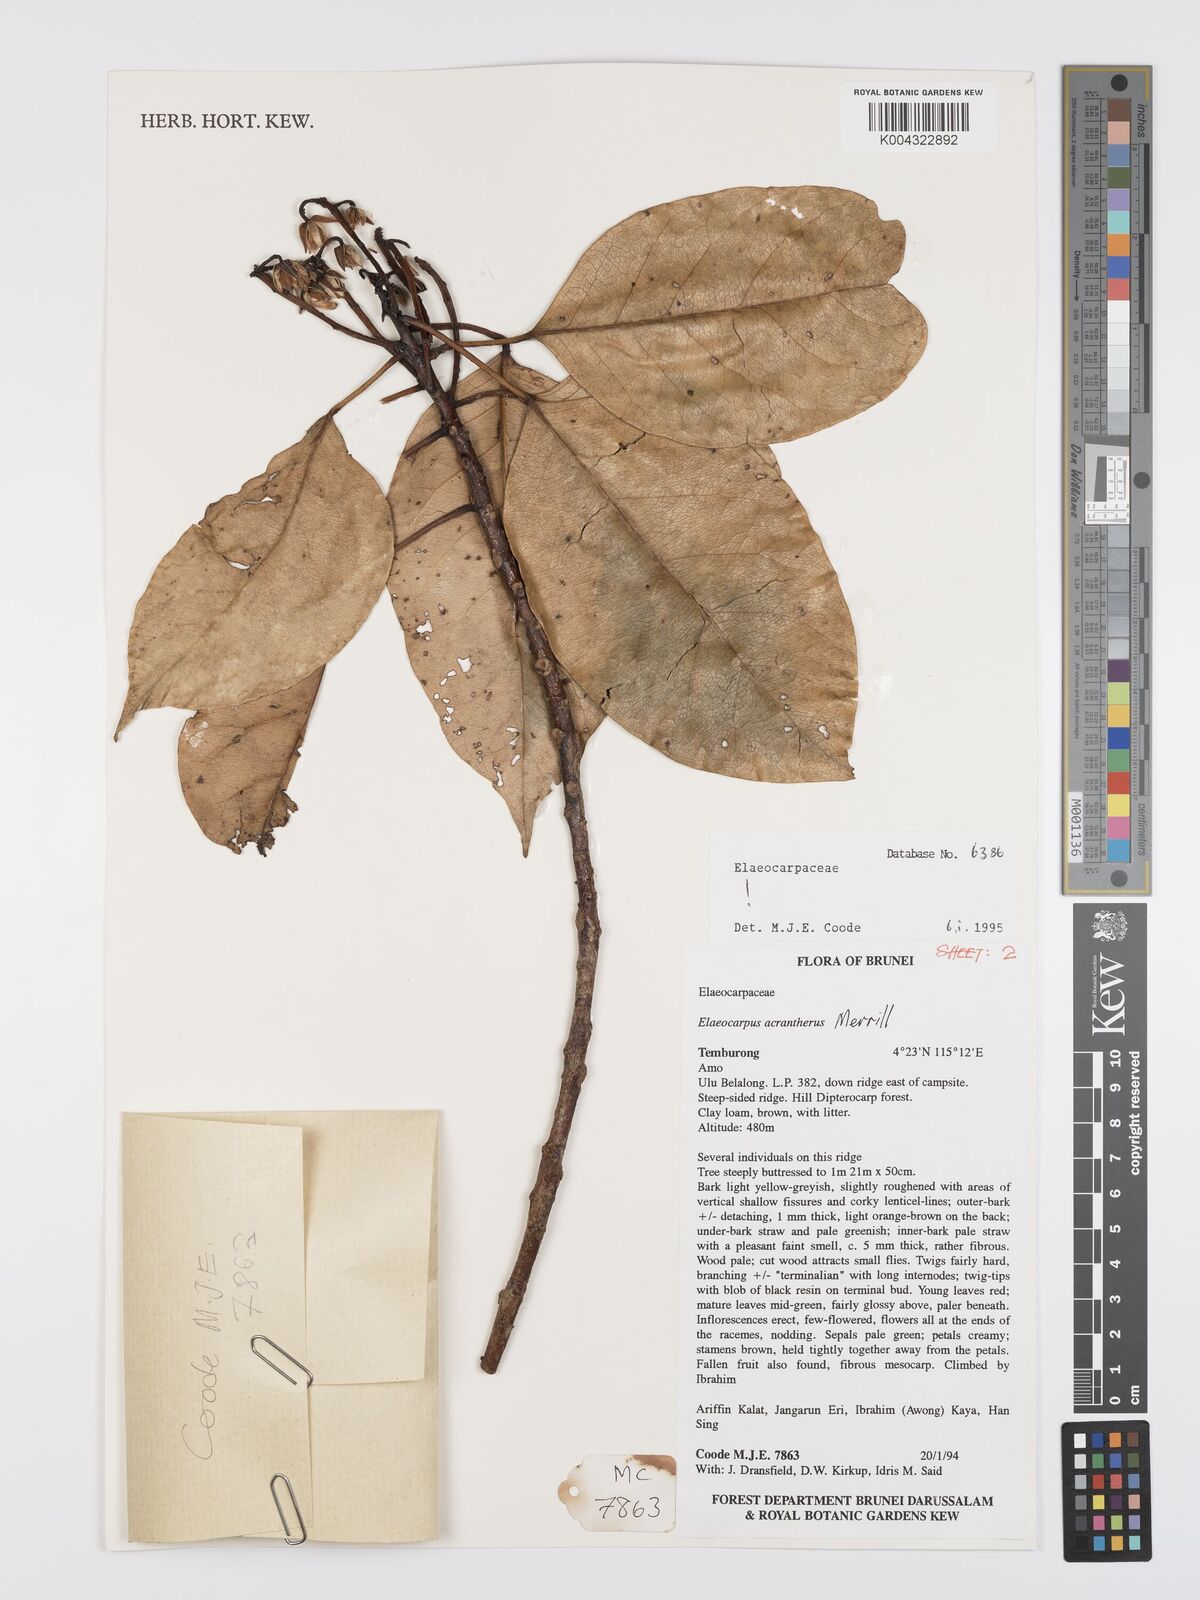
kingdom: Plantae
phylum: Tracheophyta
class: Magnoliopsida
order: Oxalidales
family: Elaeocarpaceae
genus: Elaeocarpus
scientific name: Elaeocarpus acrantherus
